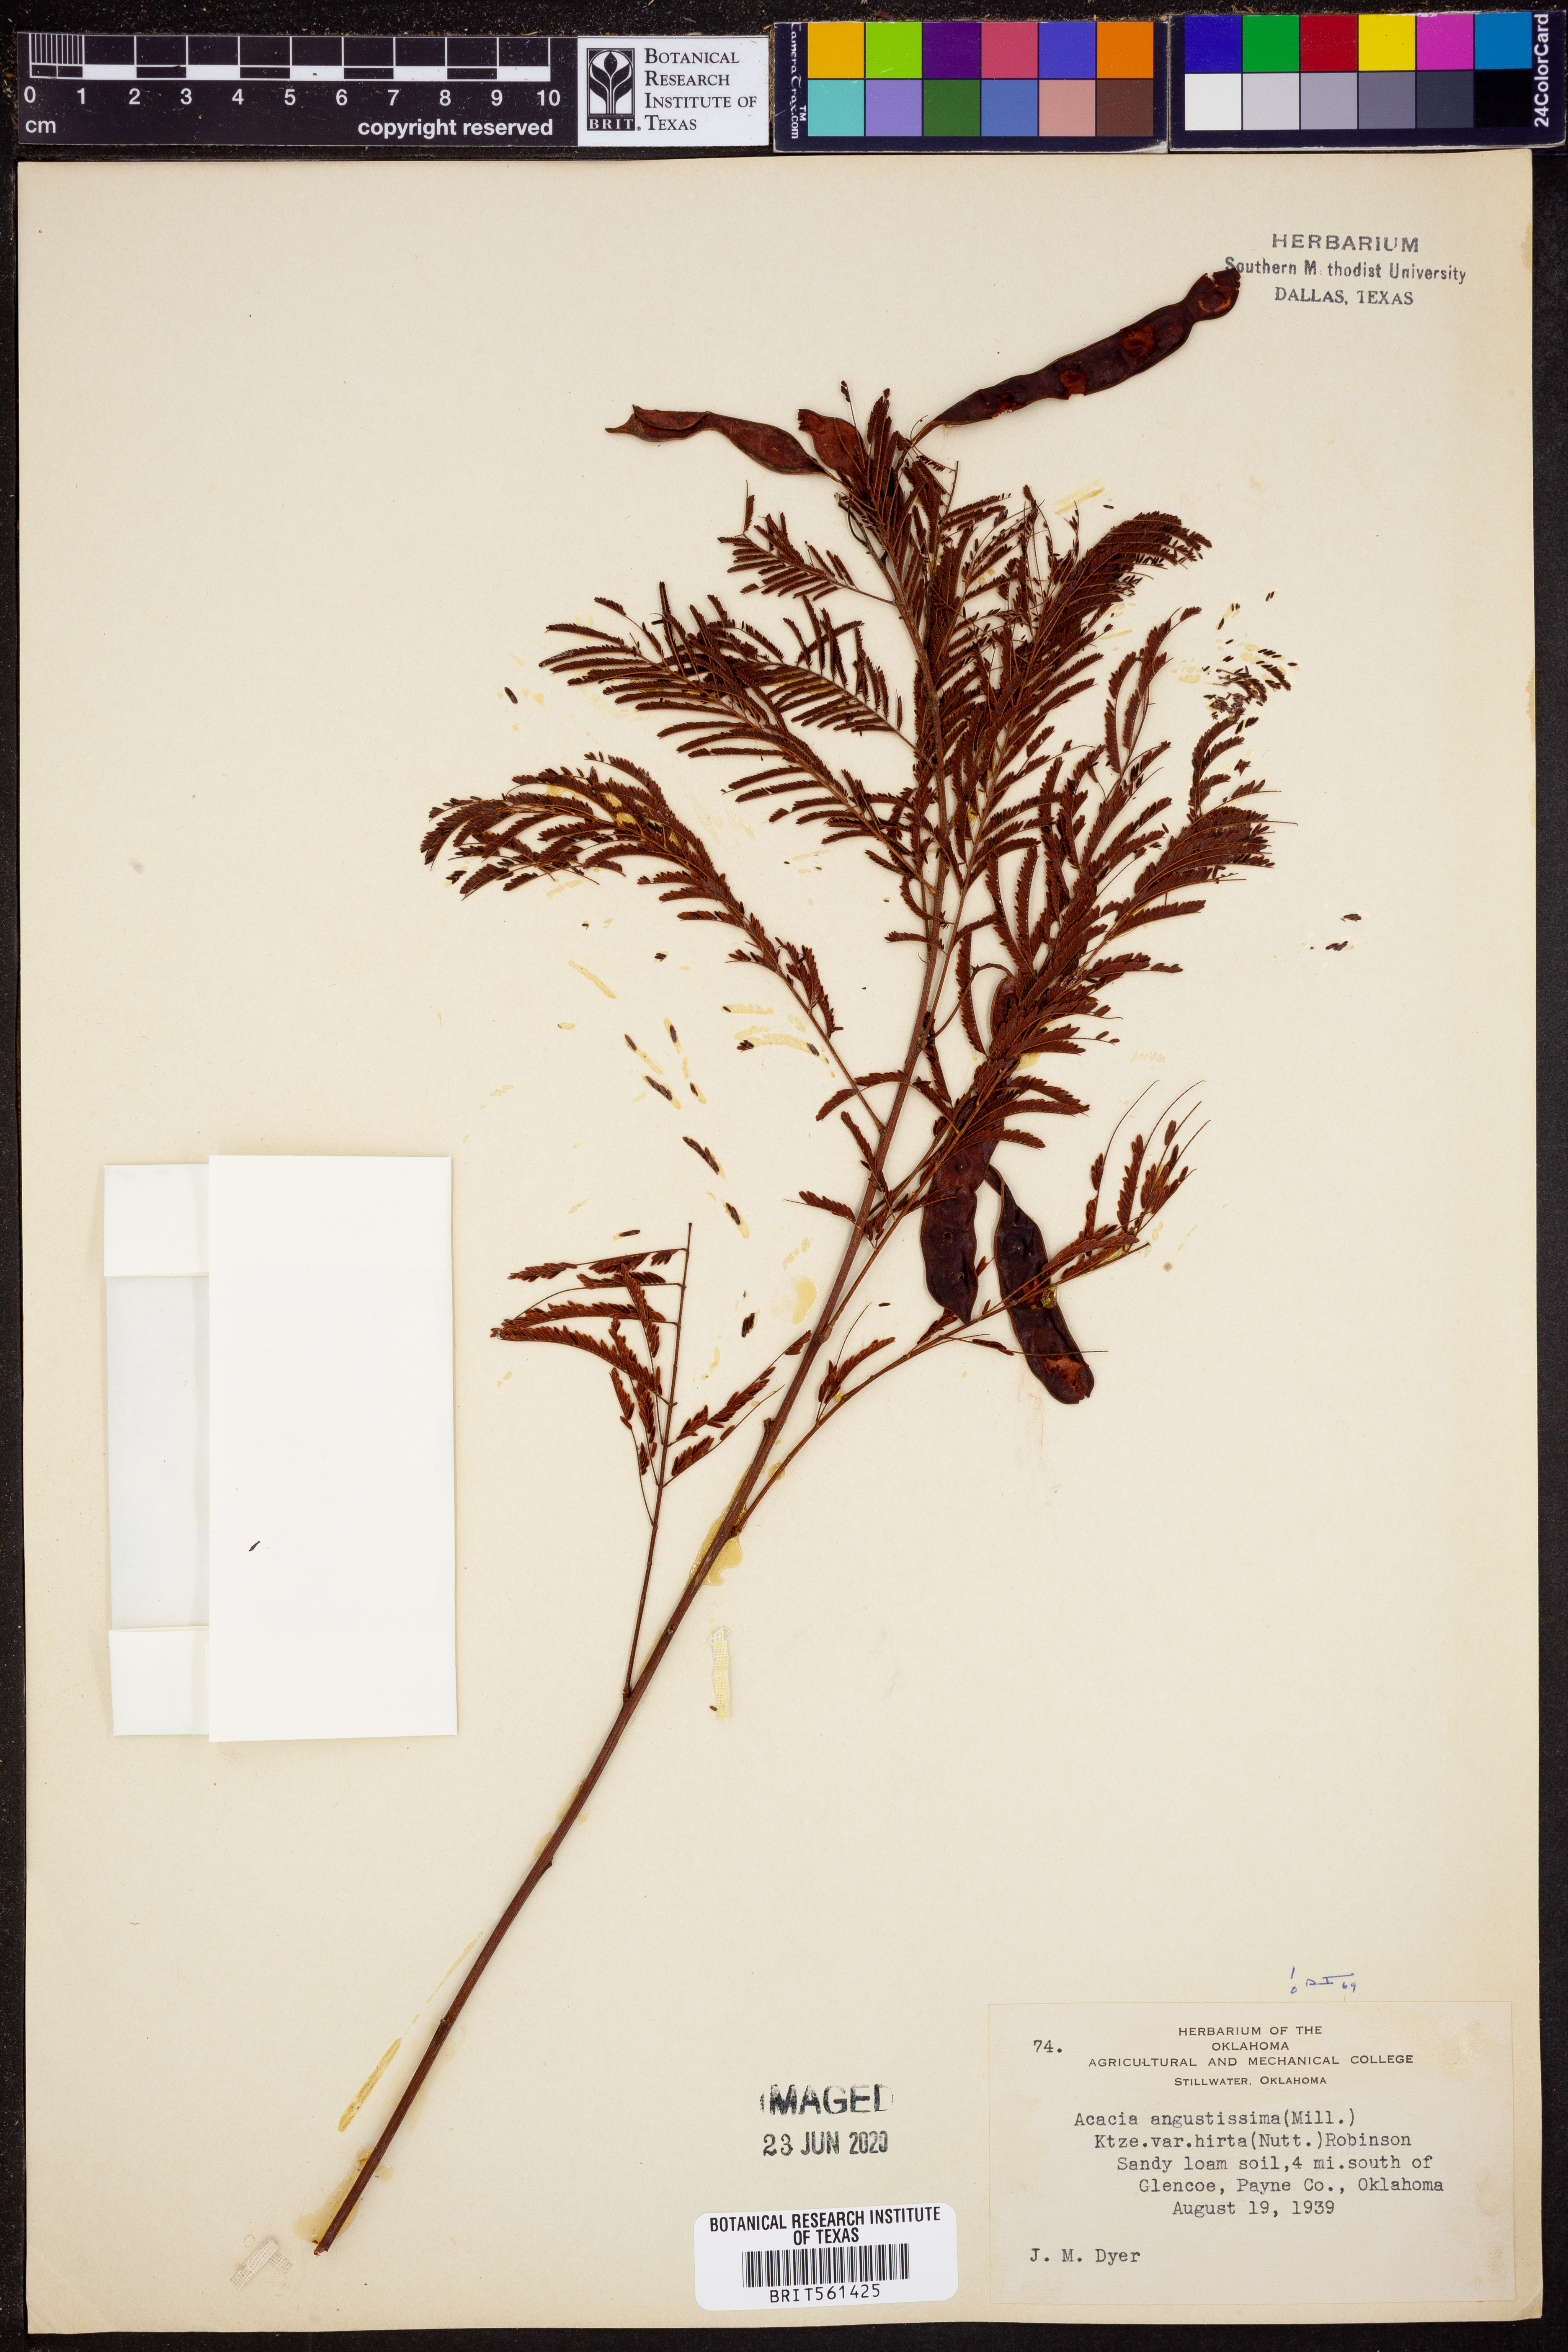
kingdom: Plantae
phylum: Tracheophyta
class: Magnoliopsida
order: Fabales
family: Fabaceae
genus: Acaciella
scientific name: Acaciella angustissima
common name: Prairie acacia
